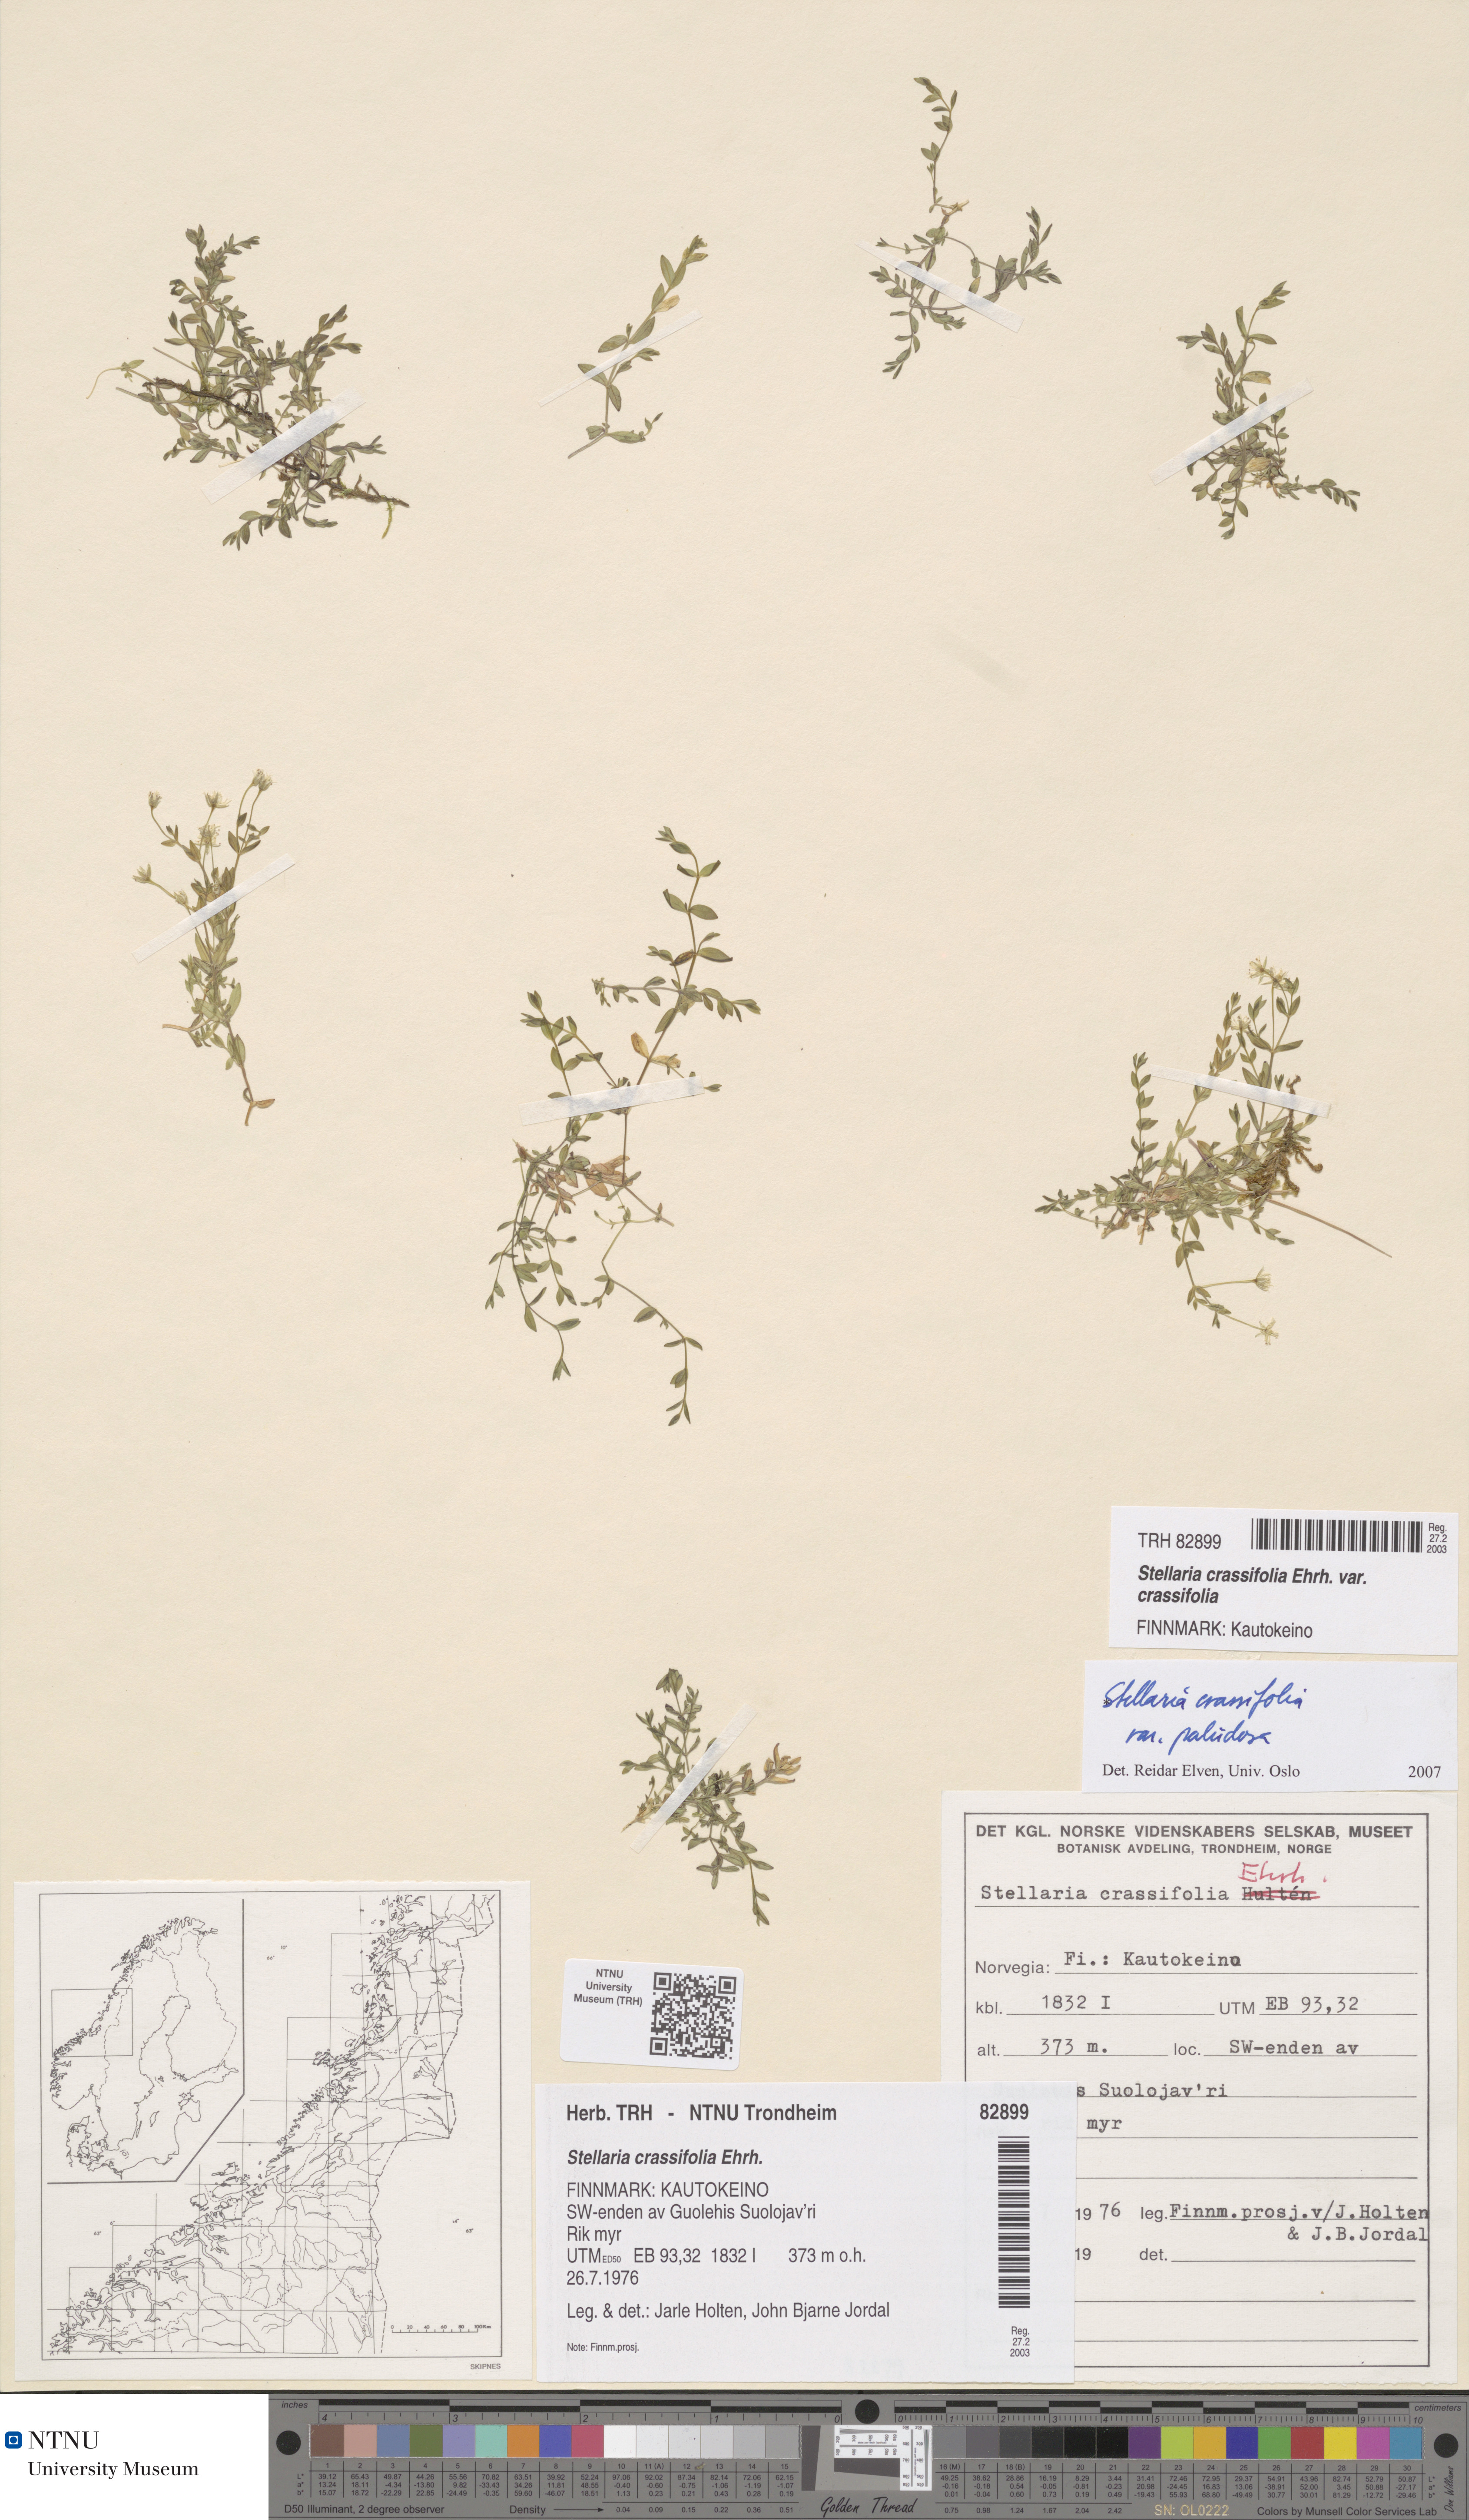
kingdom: Plantae
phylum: Tracheophyta
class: Magnoliopsida
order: Caryophyllales
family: Caryophyllaceae
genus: Stellaria
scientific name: Stellaria crassifolia
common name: Fleshy starwort
